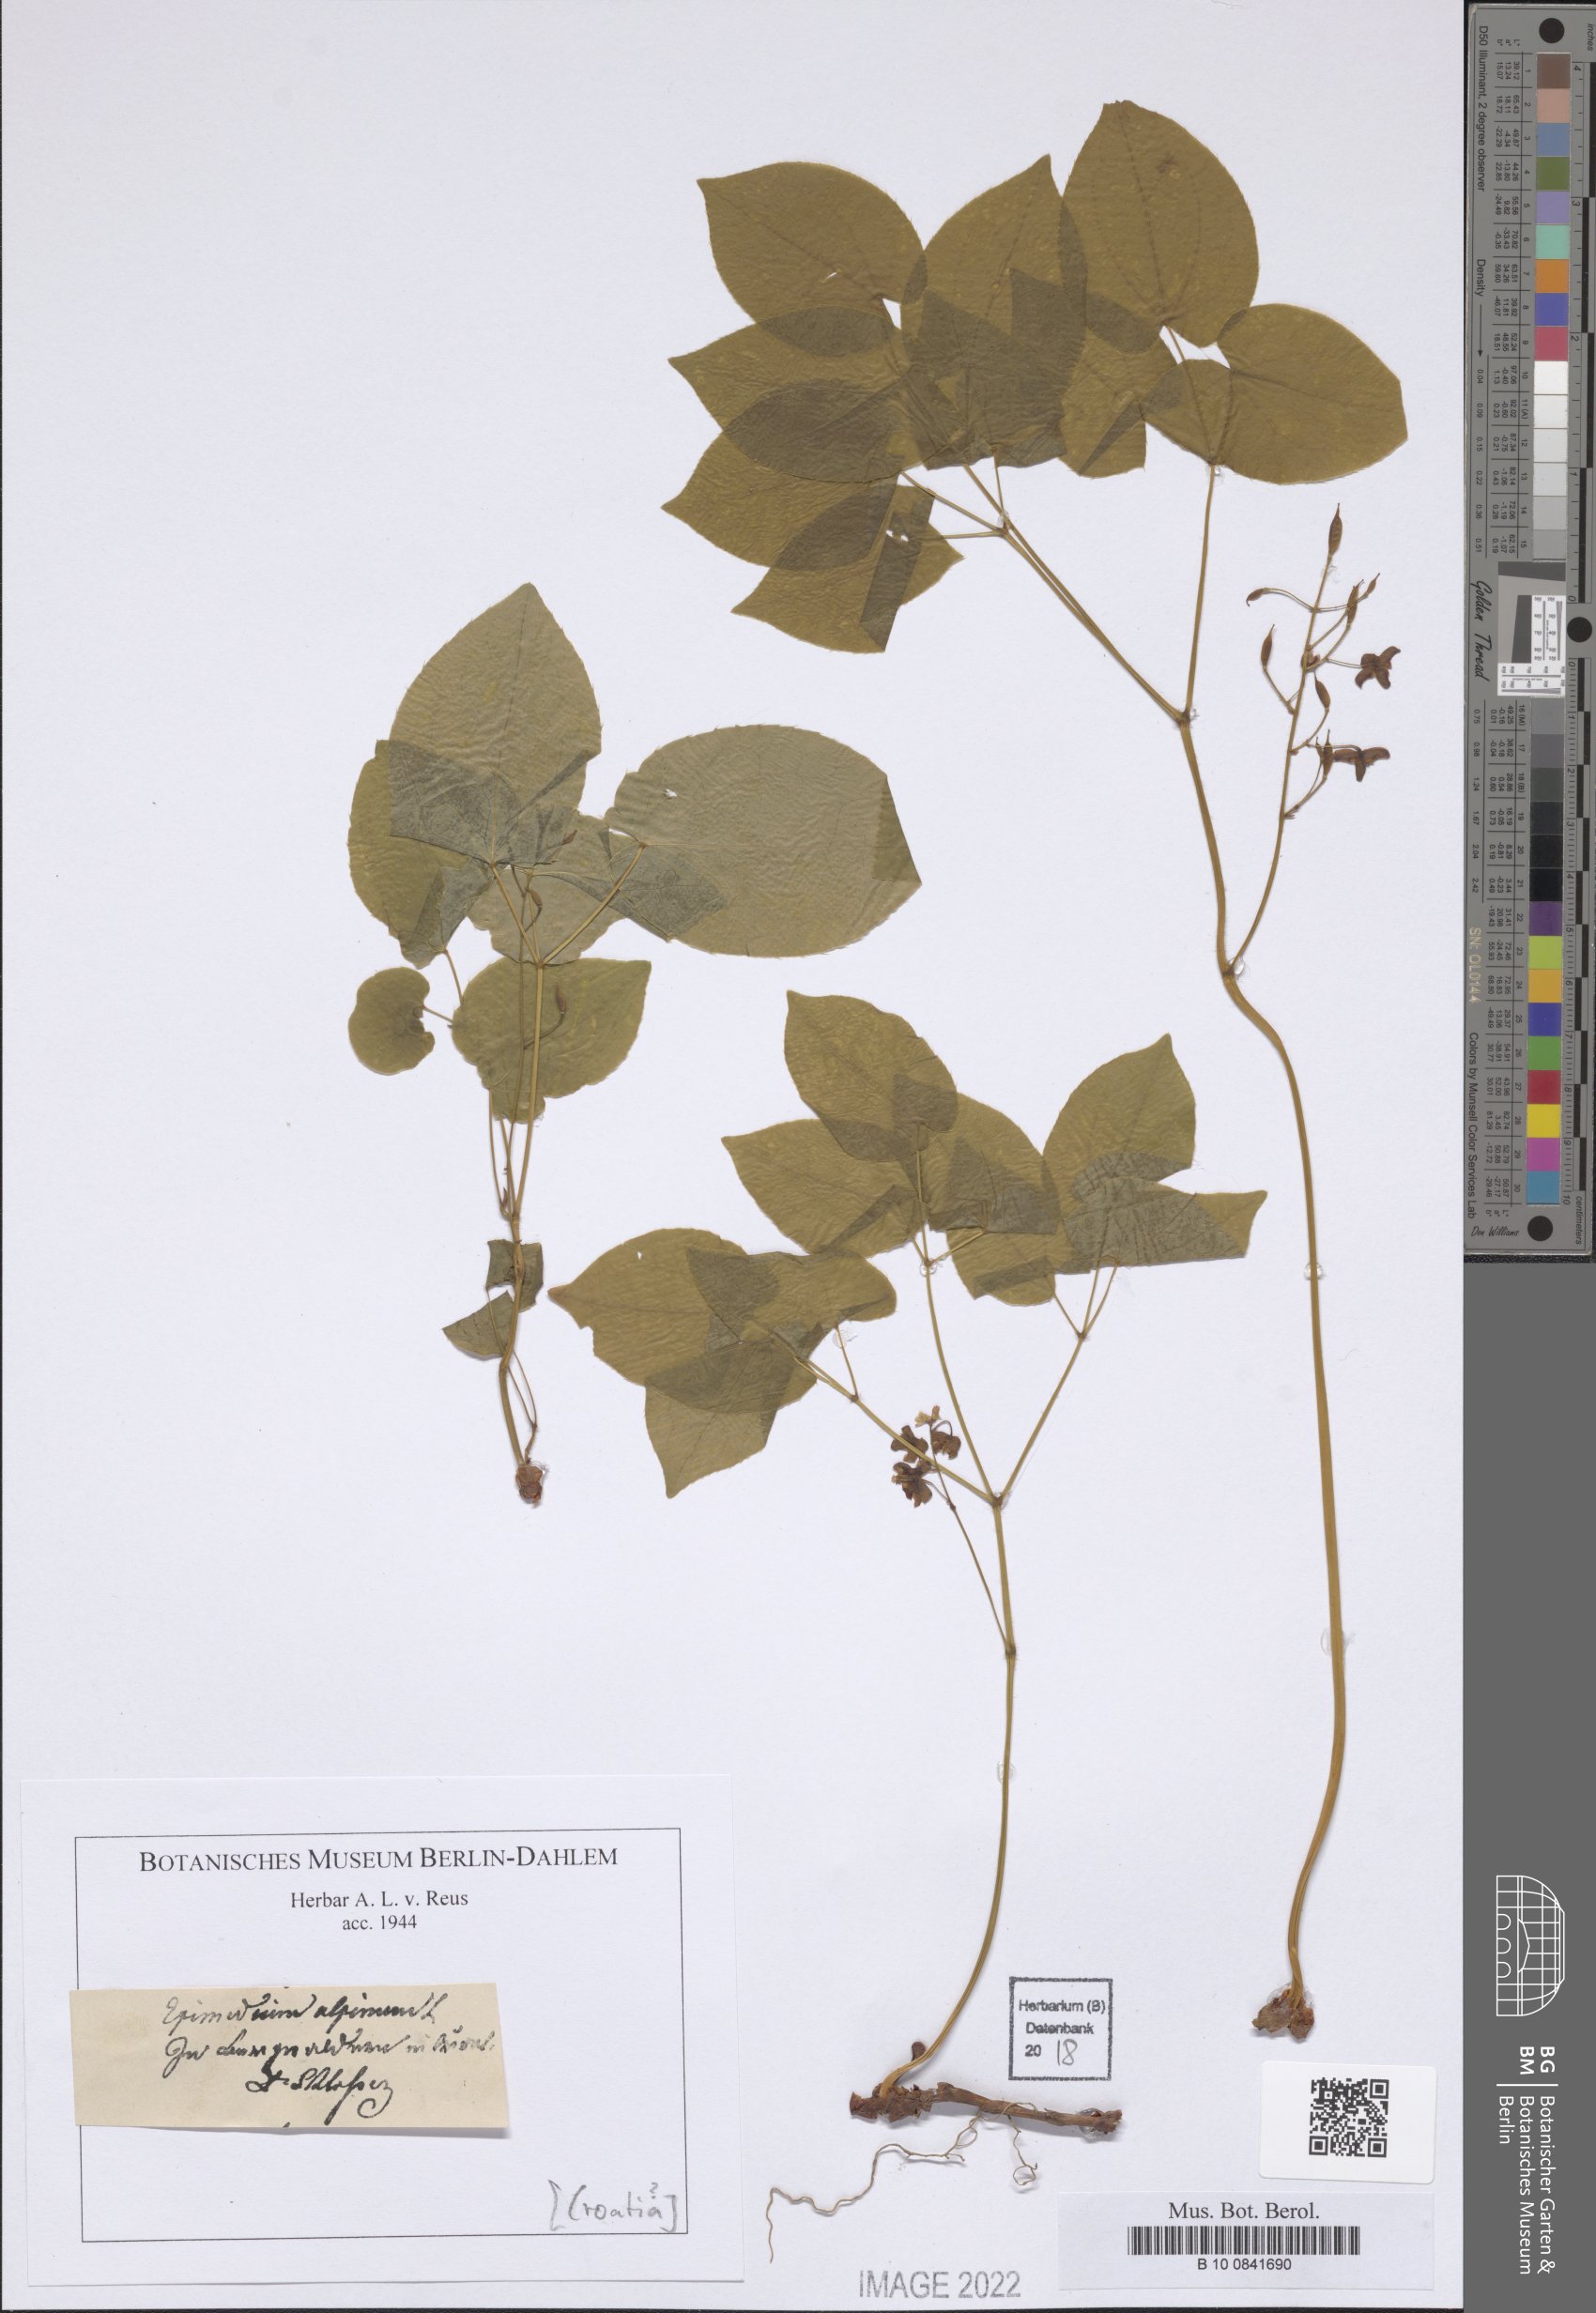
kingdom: Plantae
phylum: Tracheophyta
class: Magnoliopsida
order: Ranunculales
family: Berberidaceae
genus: Epimedium
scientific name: Epimedium alpinum
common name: Barrenwort
